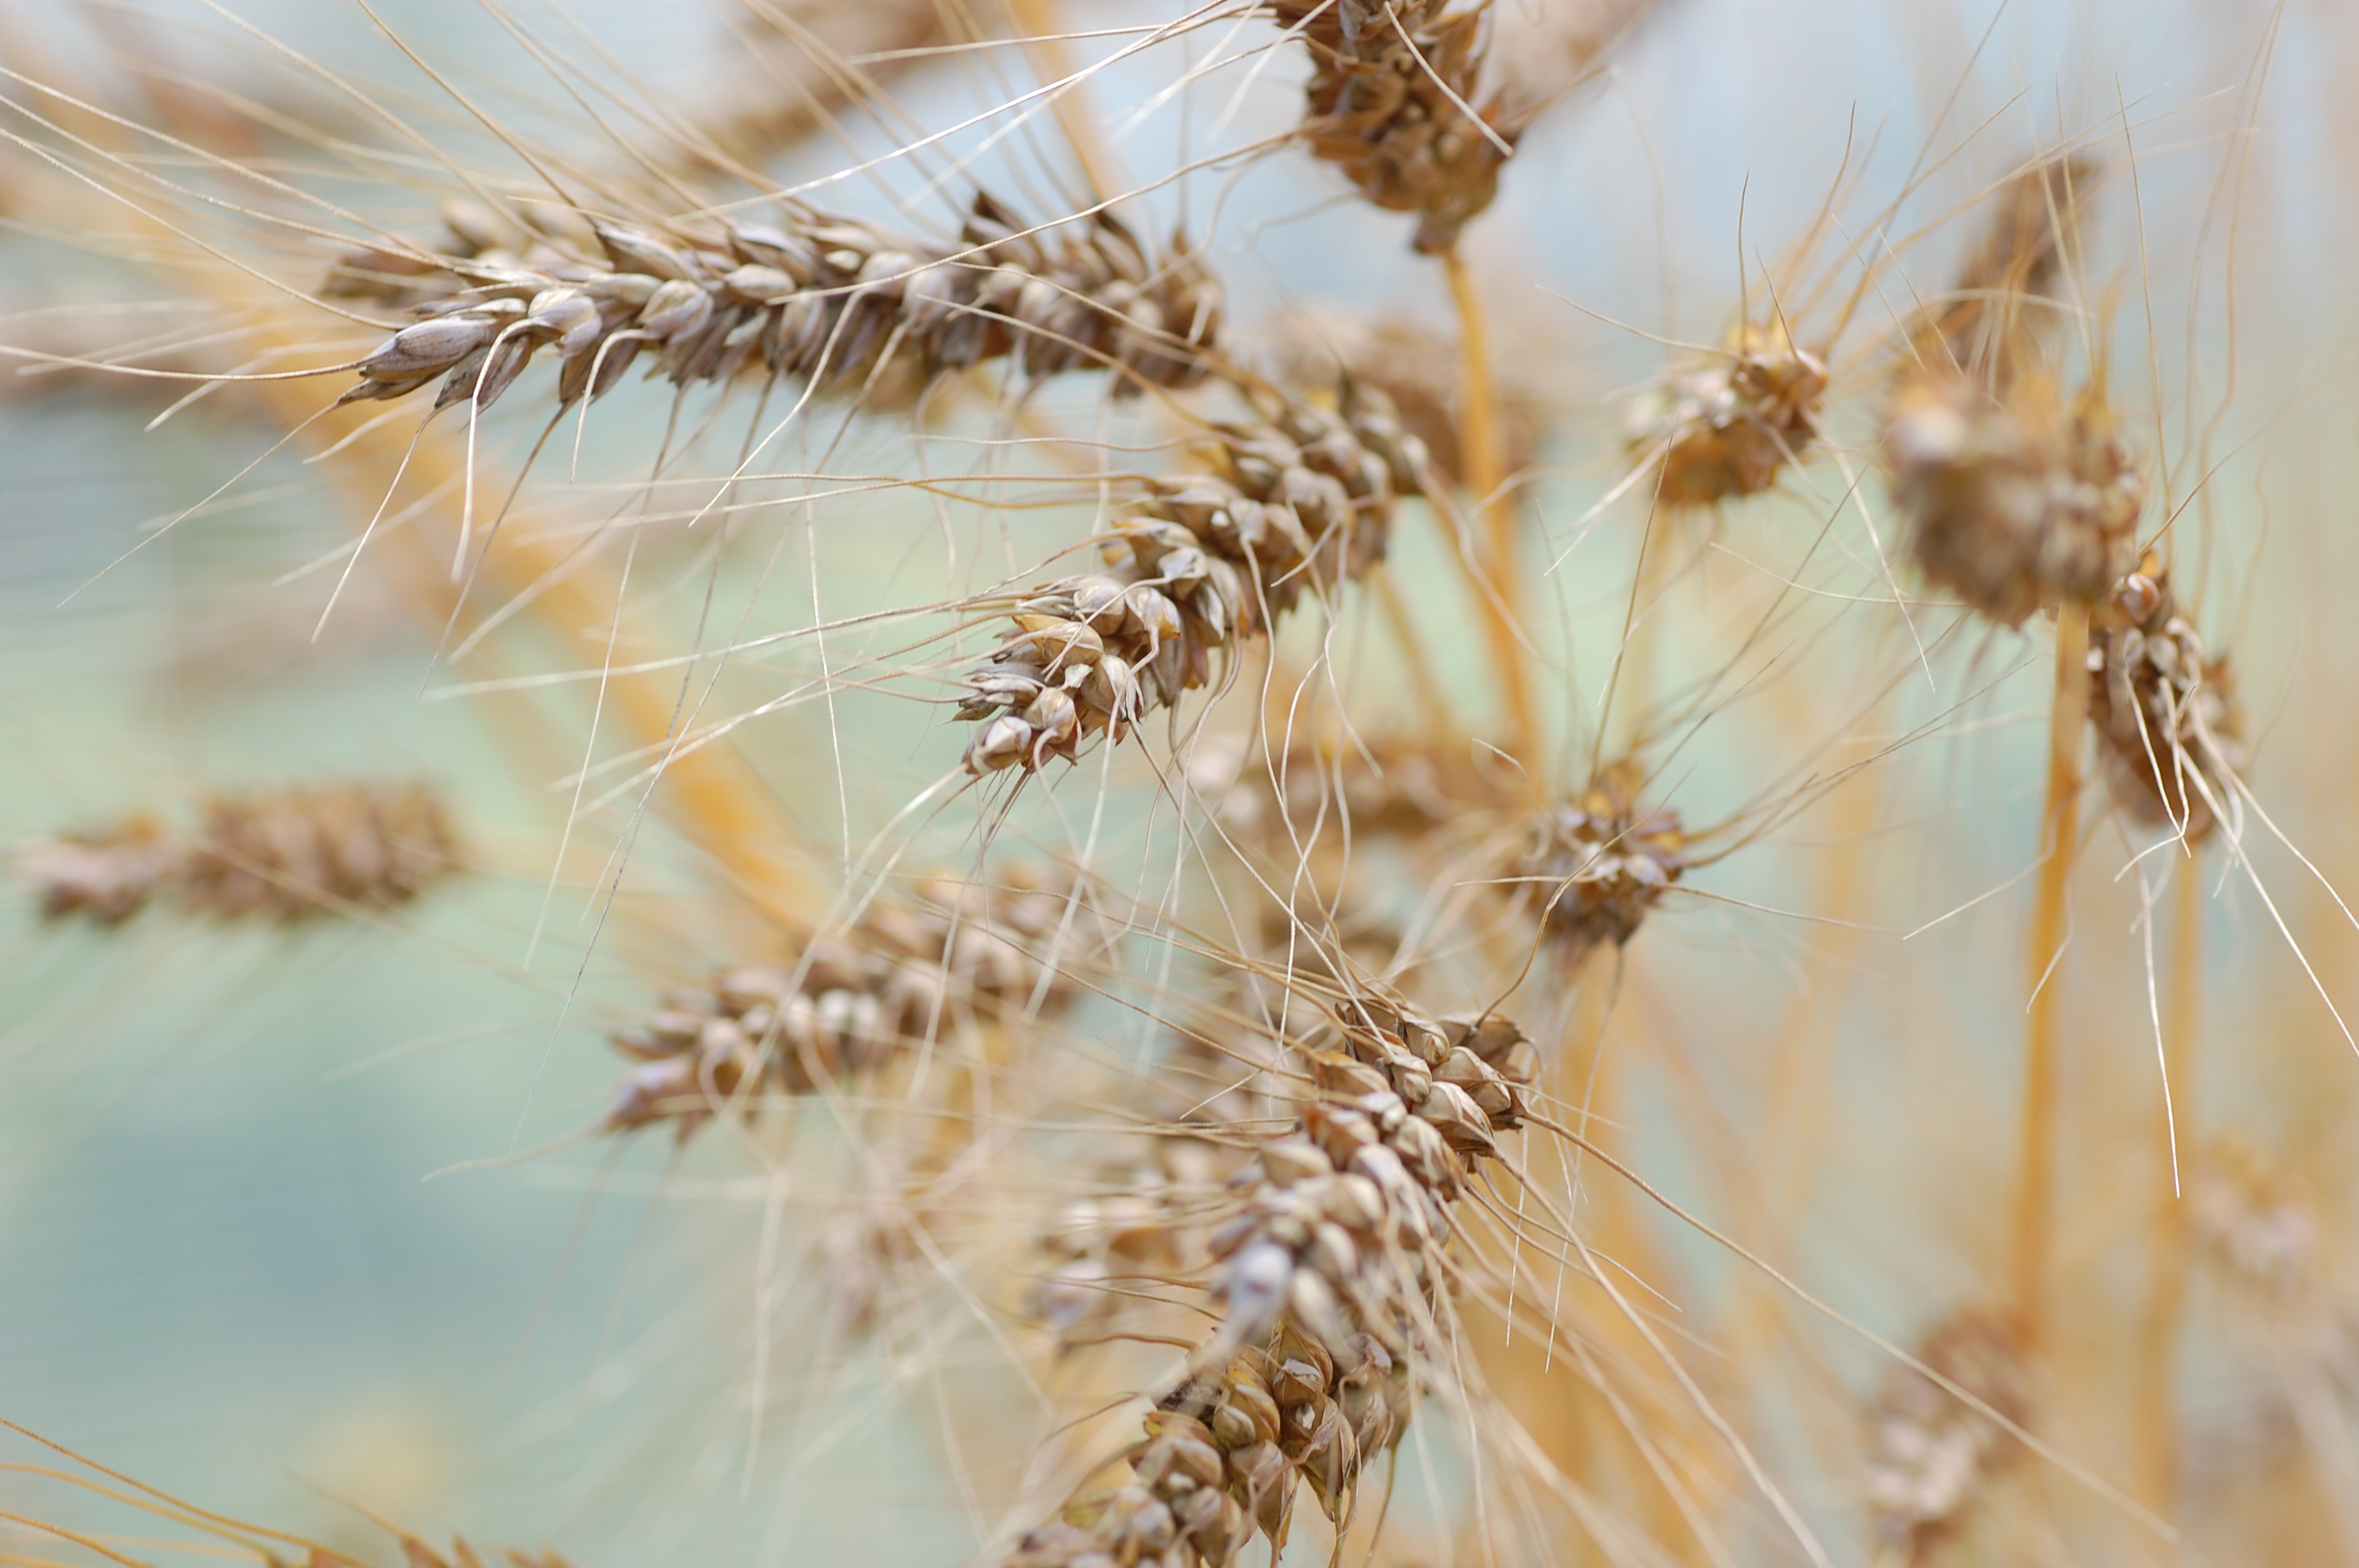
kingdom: Plantae
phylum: Tracheophyta
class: Liliopsida
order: Poales
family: Poaceae
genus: Triticum
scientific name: Triticum aestivum
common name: Common wheat
